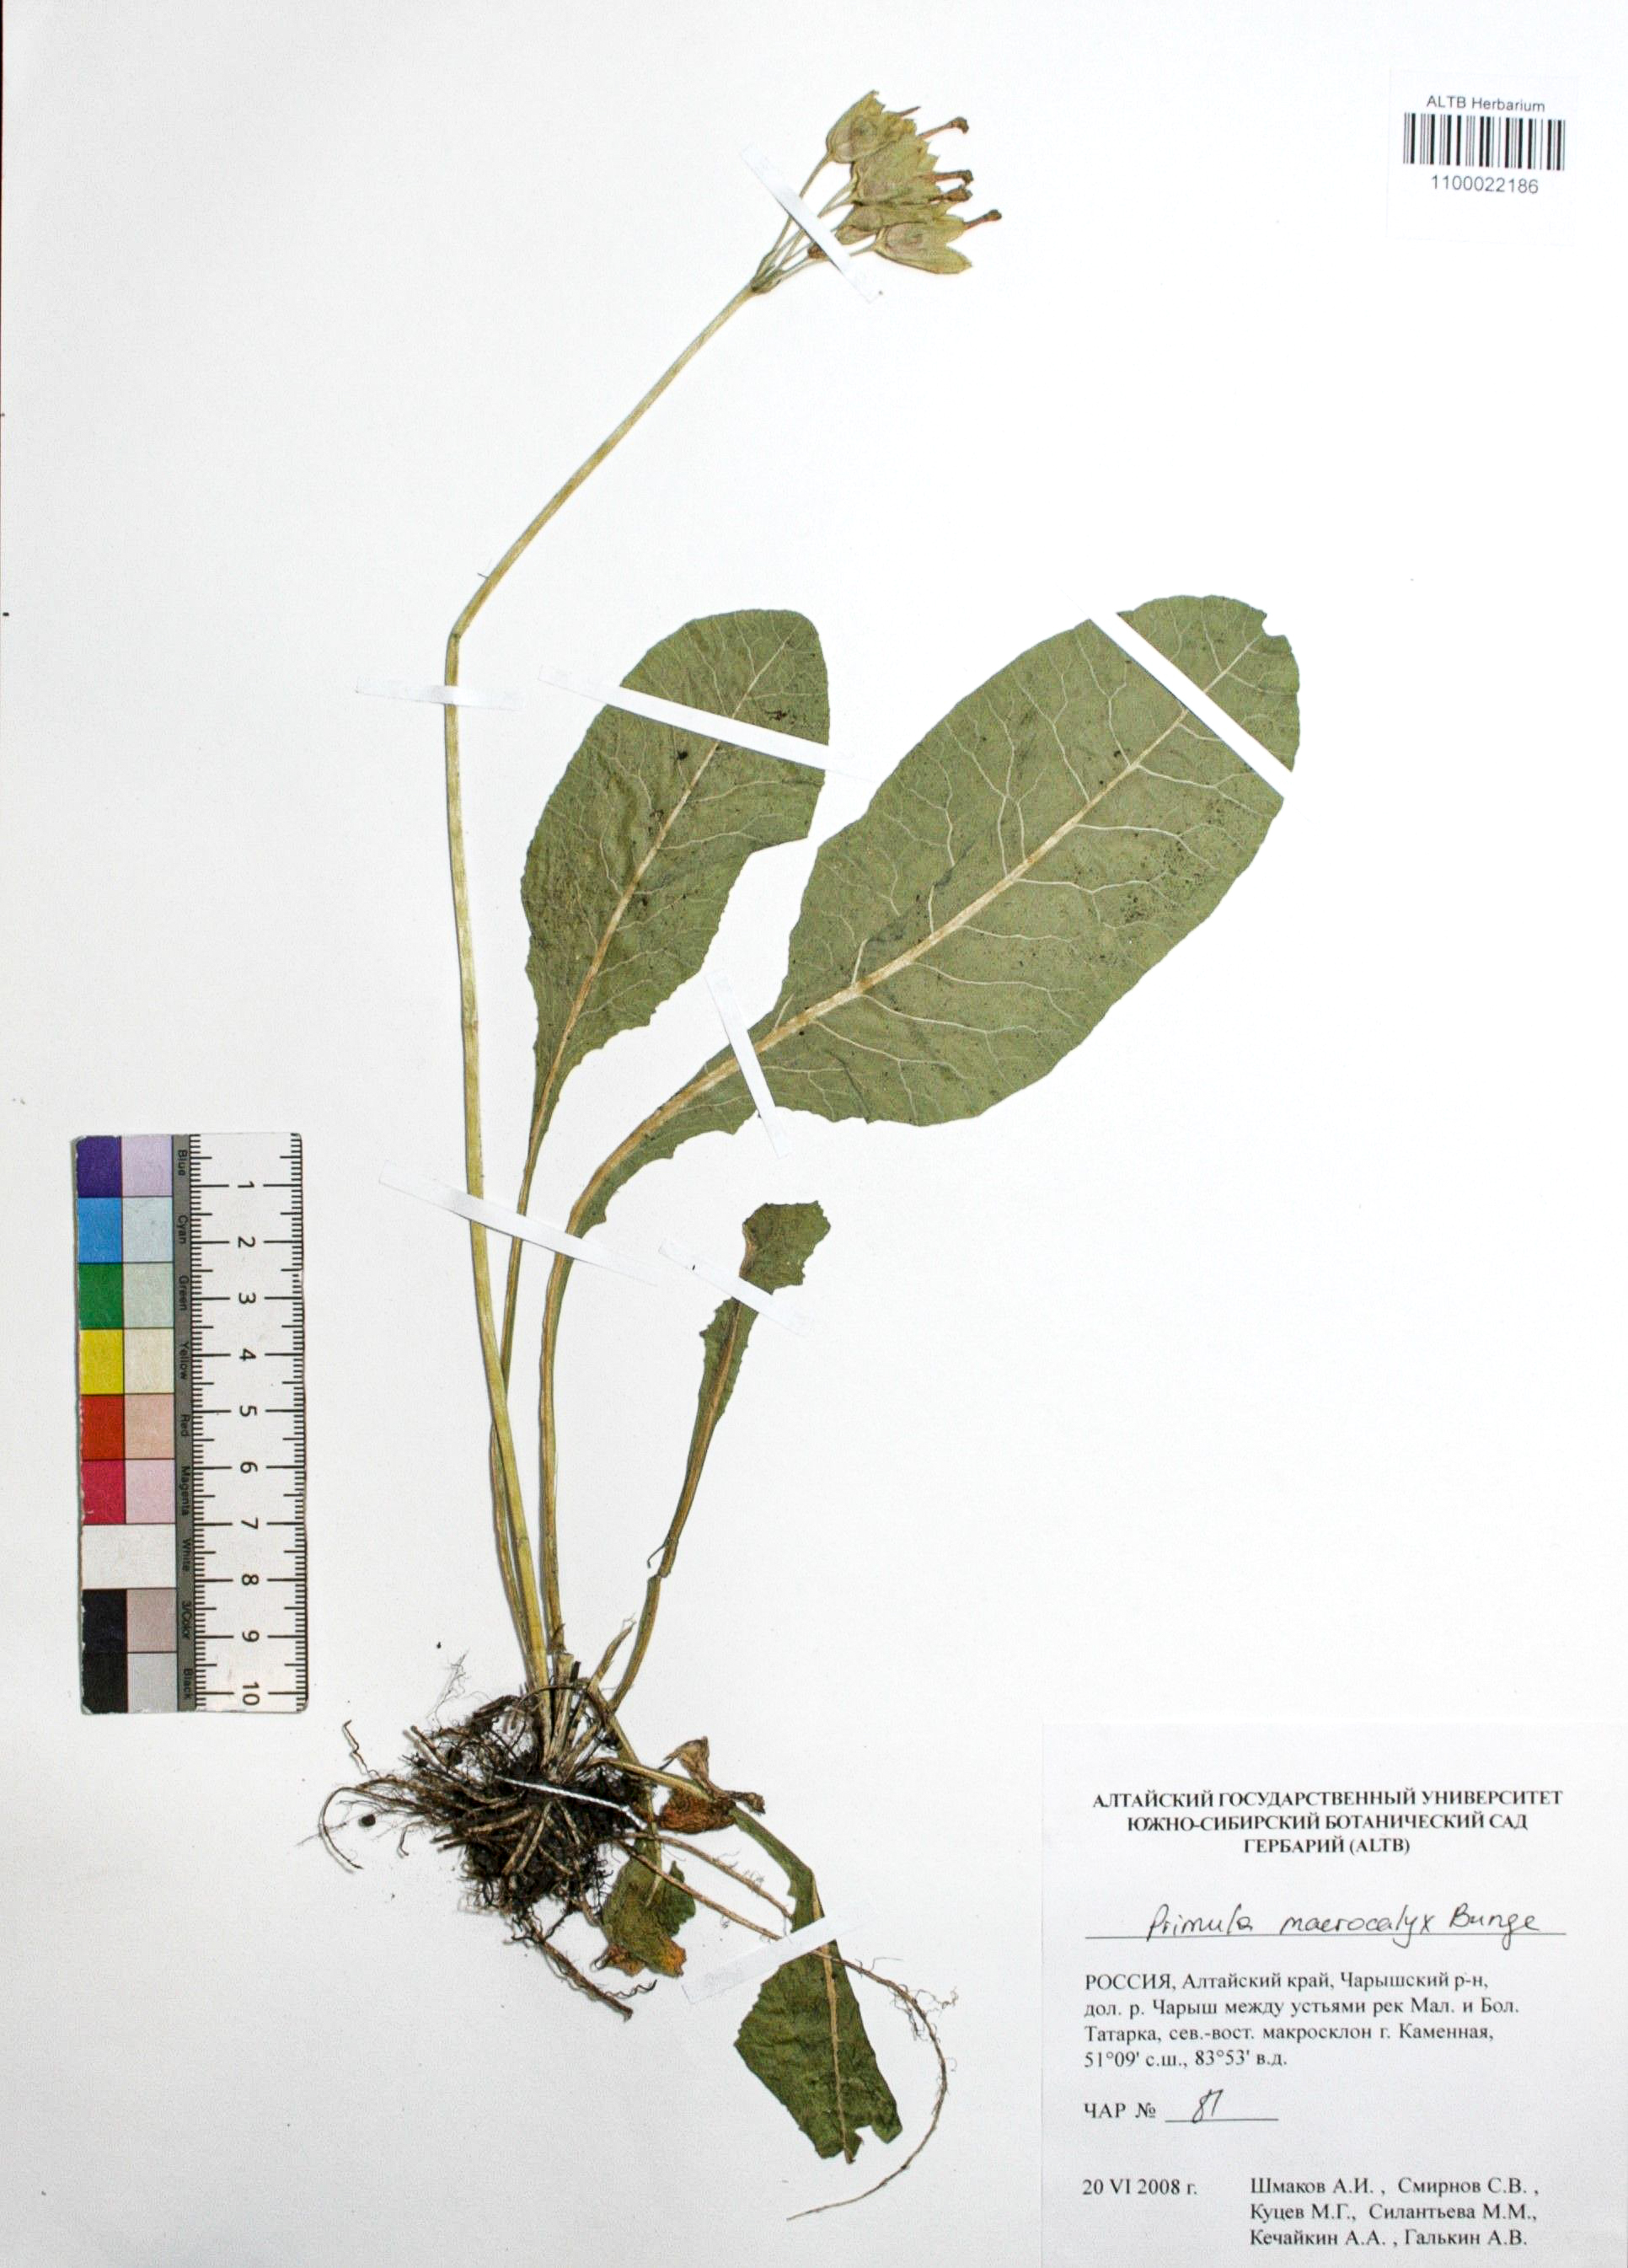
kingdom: Plantae
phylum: Tracheophyta
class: Magnoliopsida
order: Ericales
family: Primulaceae
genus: Primula
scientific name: Primula veris
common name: Cowslip
